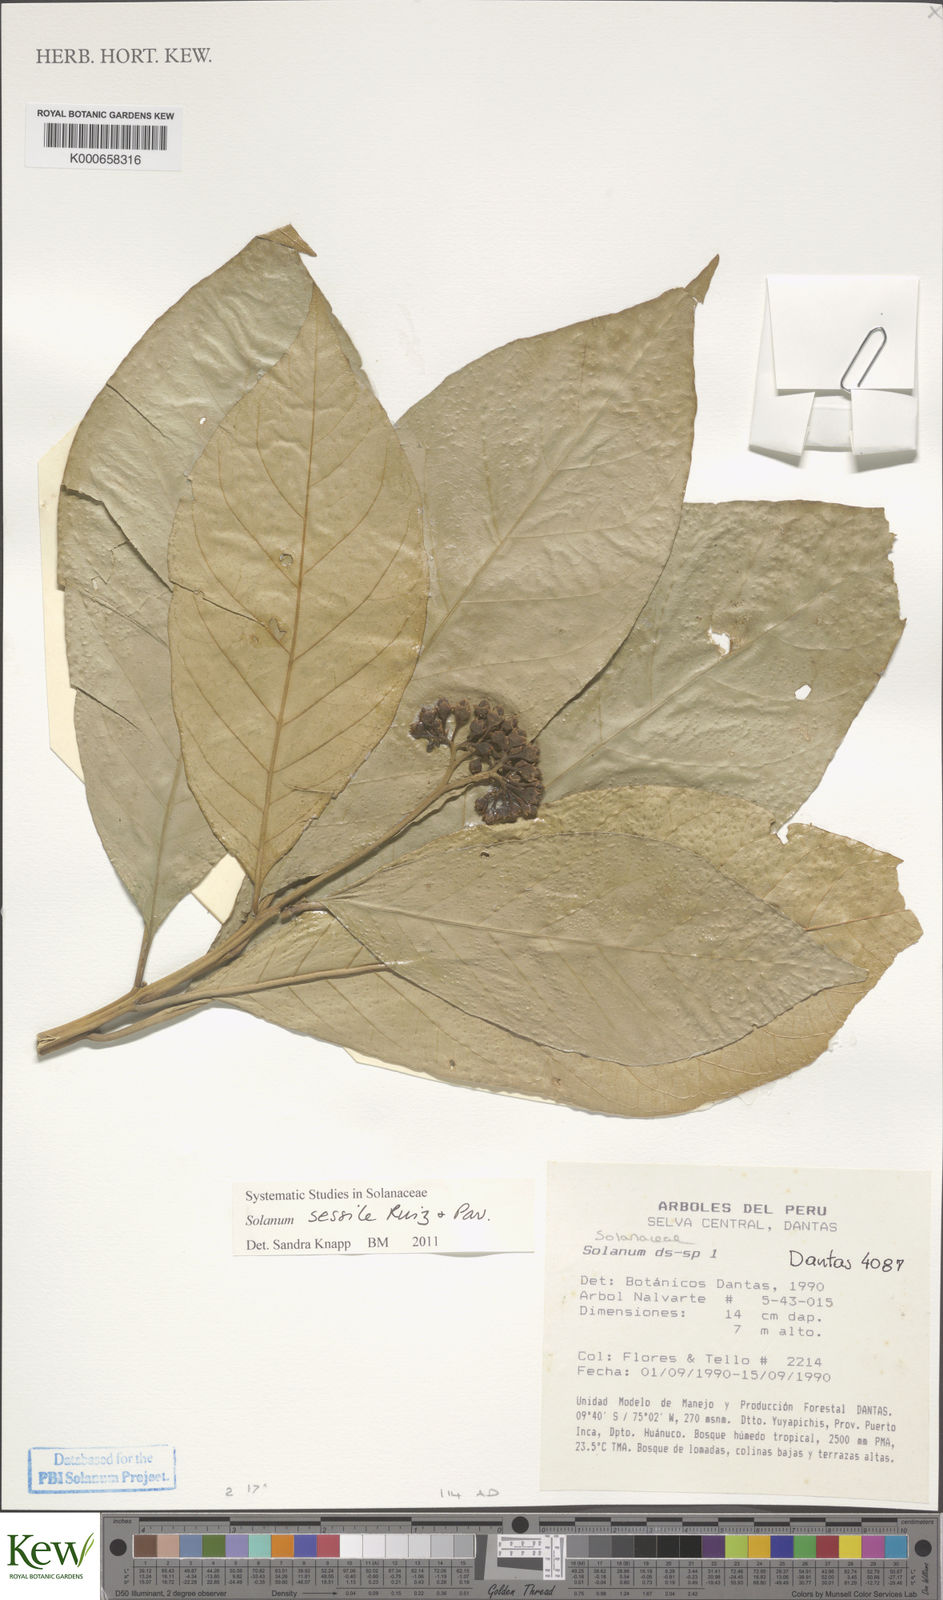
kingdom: Plantae
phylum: Tracheophyta
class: Magnoliopsida
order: Solanales
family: Solanaceae
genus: Solanum
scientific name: Solanum sessile
